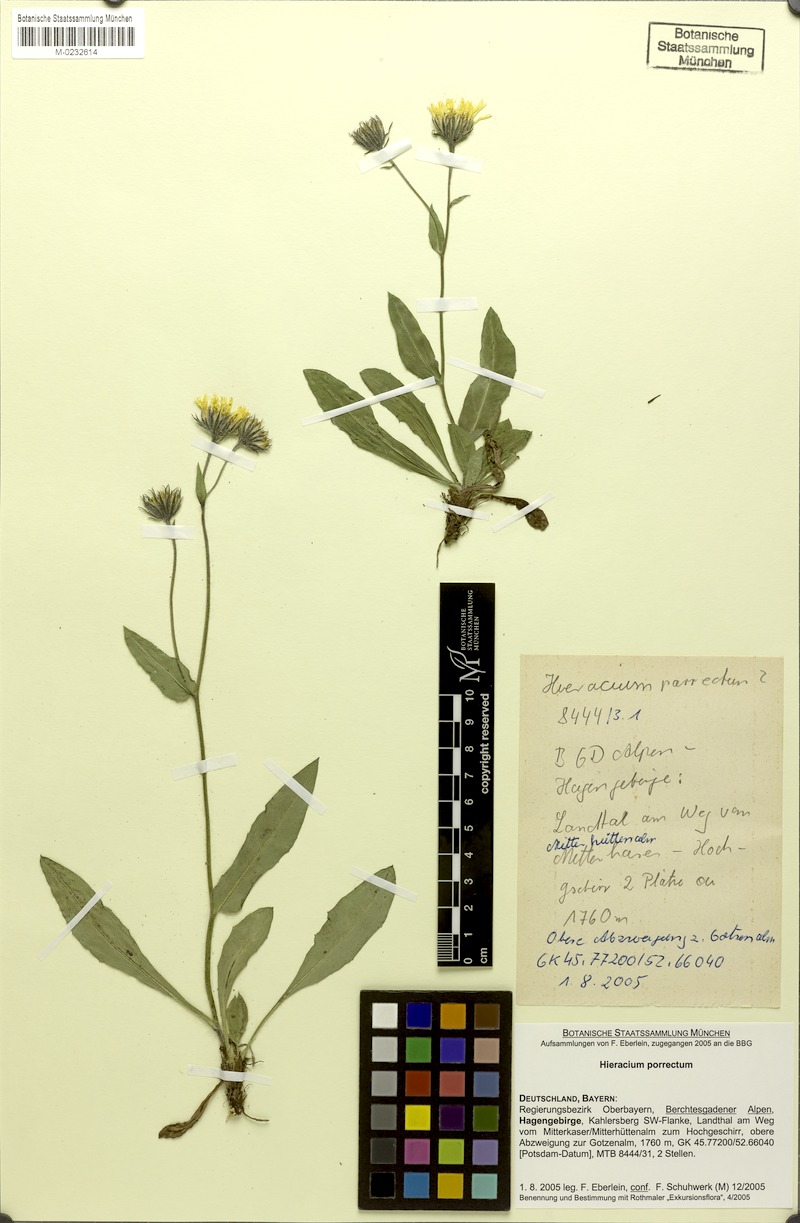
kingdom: Plantae
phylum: Tracheophyta
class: Magnoliopsida
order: Asterales
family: Asteraceae
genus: Hieracium
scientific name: Hieracium porrectum
